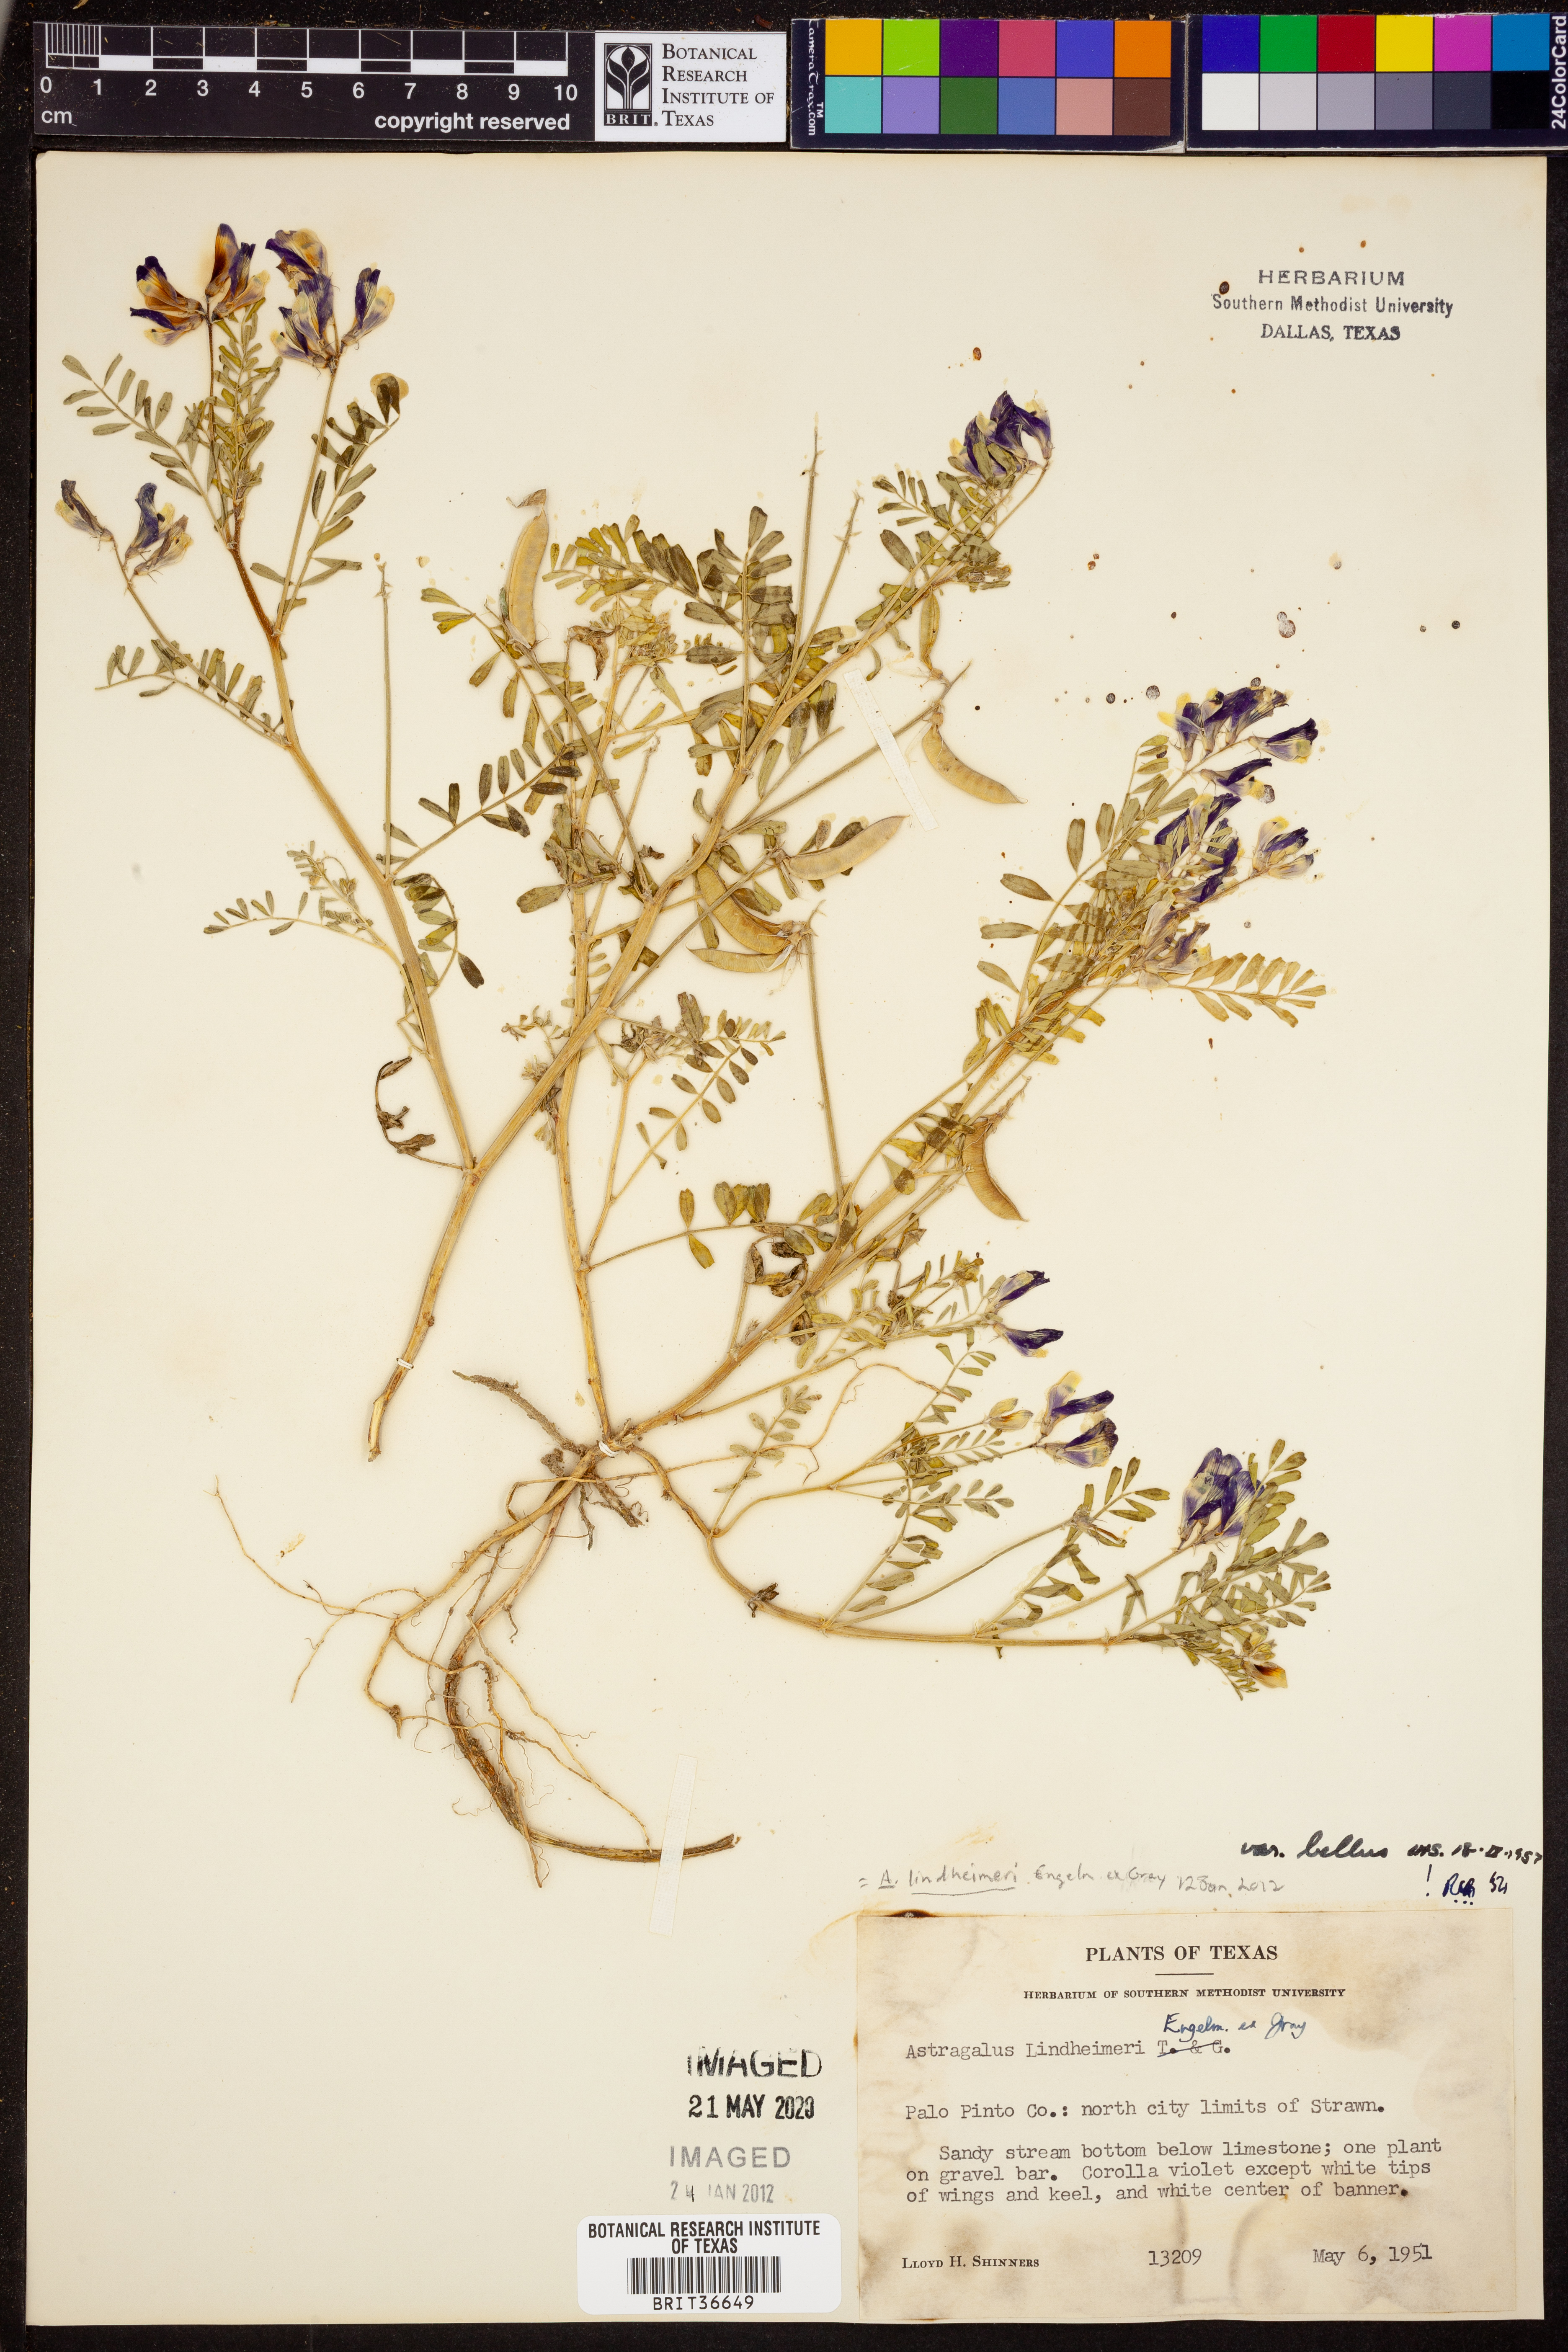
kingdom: Plantae
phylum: Tracheophyta
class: Magnoliopsida
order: Fabales
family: Fabaceae
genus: Astragalus
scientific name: Astragalus lindheimeri
